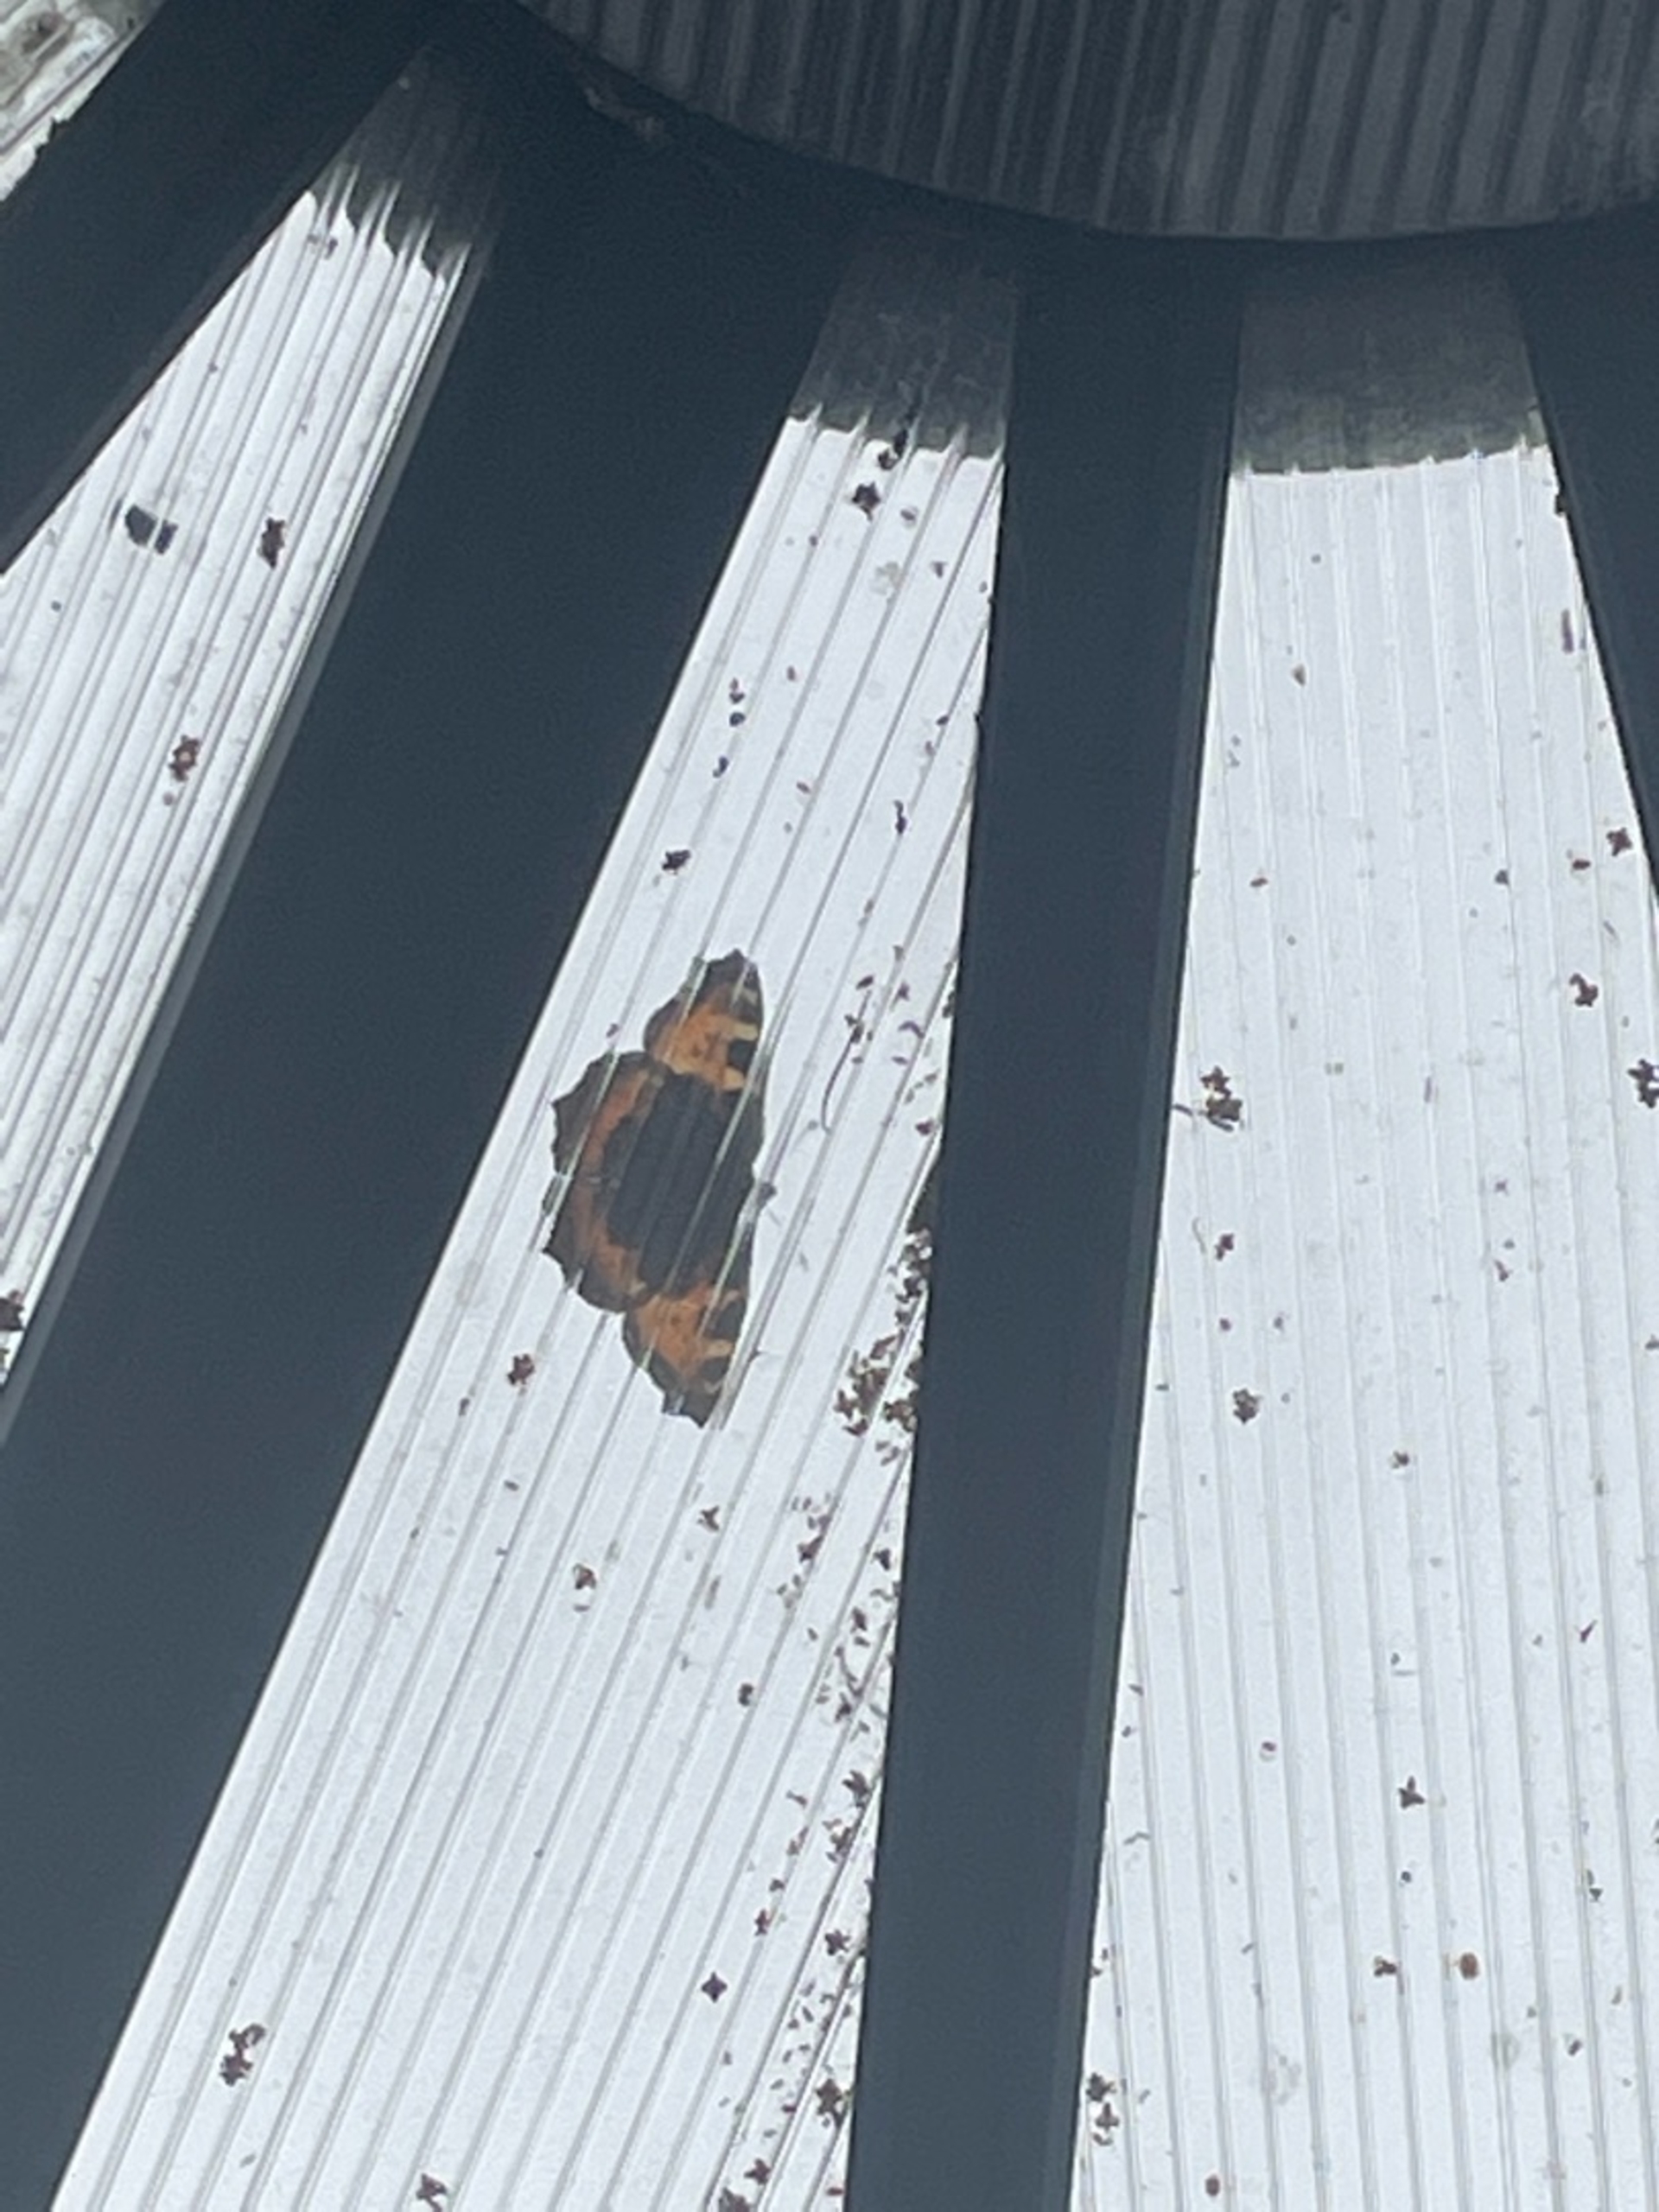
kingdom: Animalia
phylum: Arthropoda
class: Insecta
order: Lepidoptera
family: Nymphalidae
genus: Aglais
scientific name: Aglais urticae
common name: Nældens takvinge
